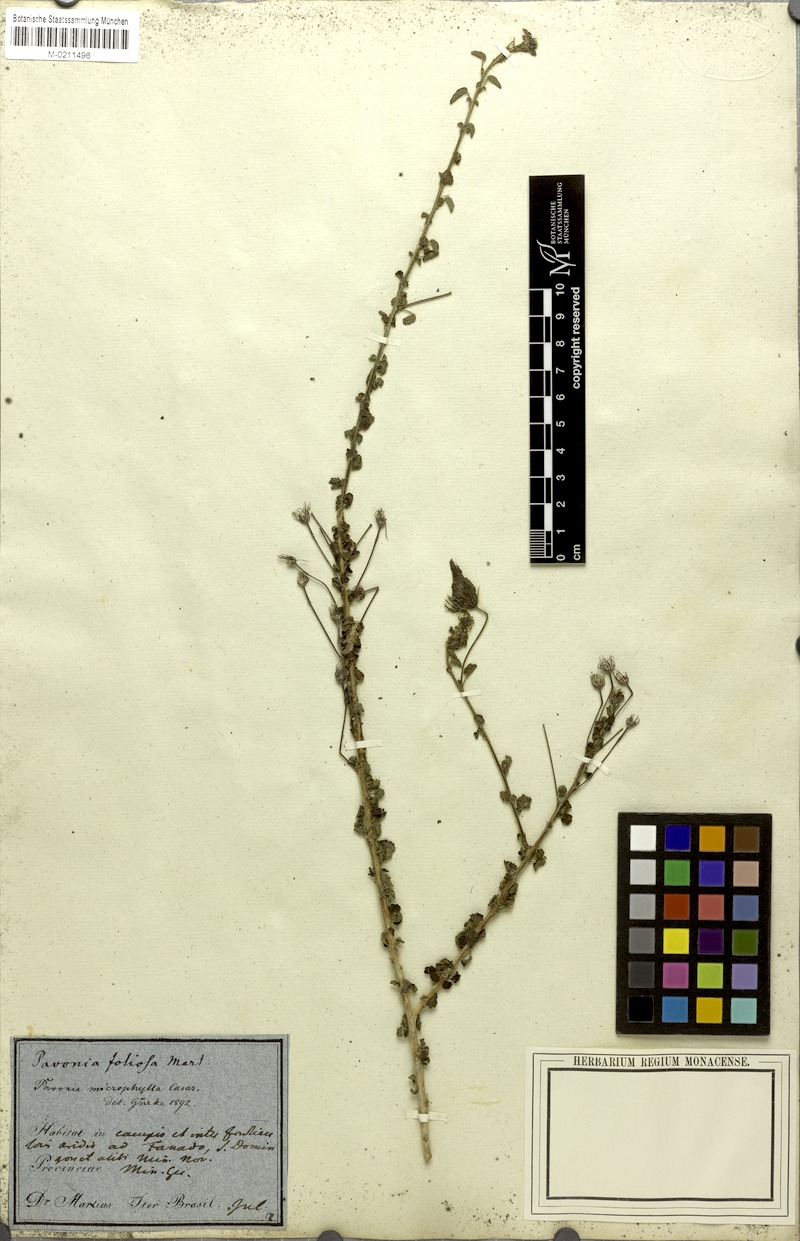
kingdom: Plantae
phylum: Tracheophyta
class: Magnoliopsida
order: Malvales
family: Malvaceae
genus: Pavonia
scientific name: Pavonia martii
